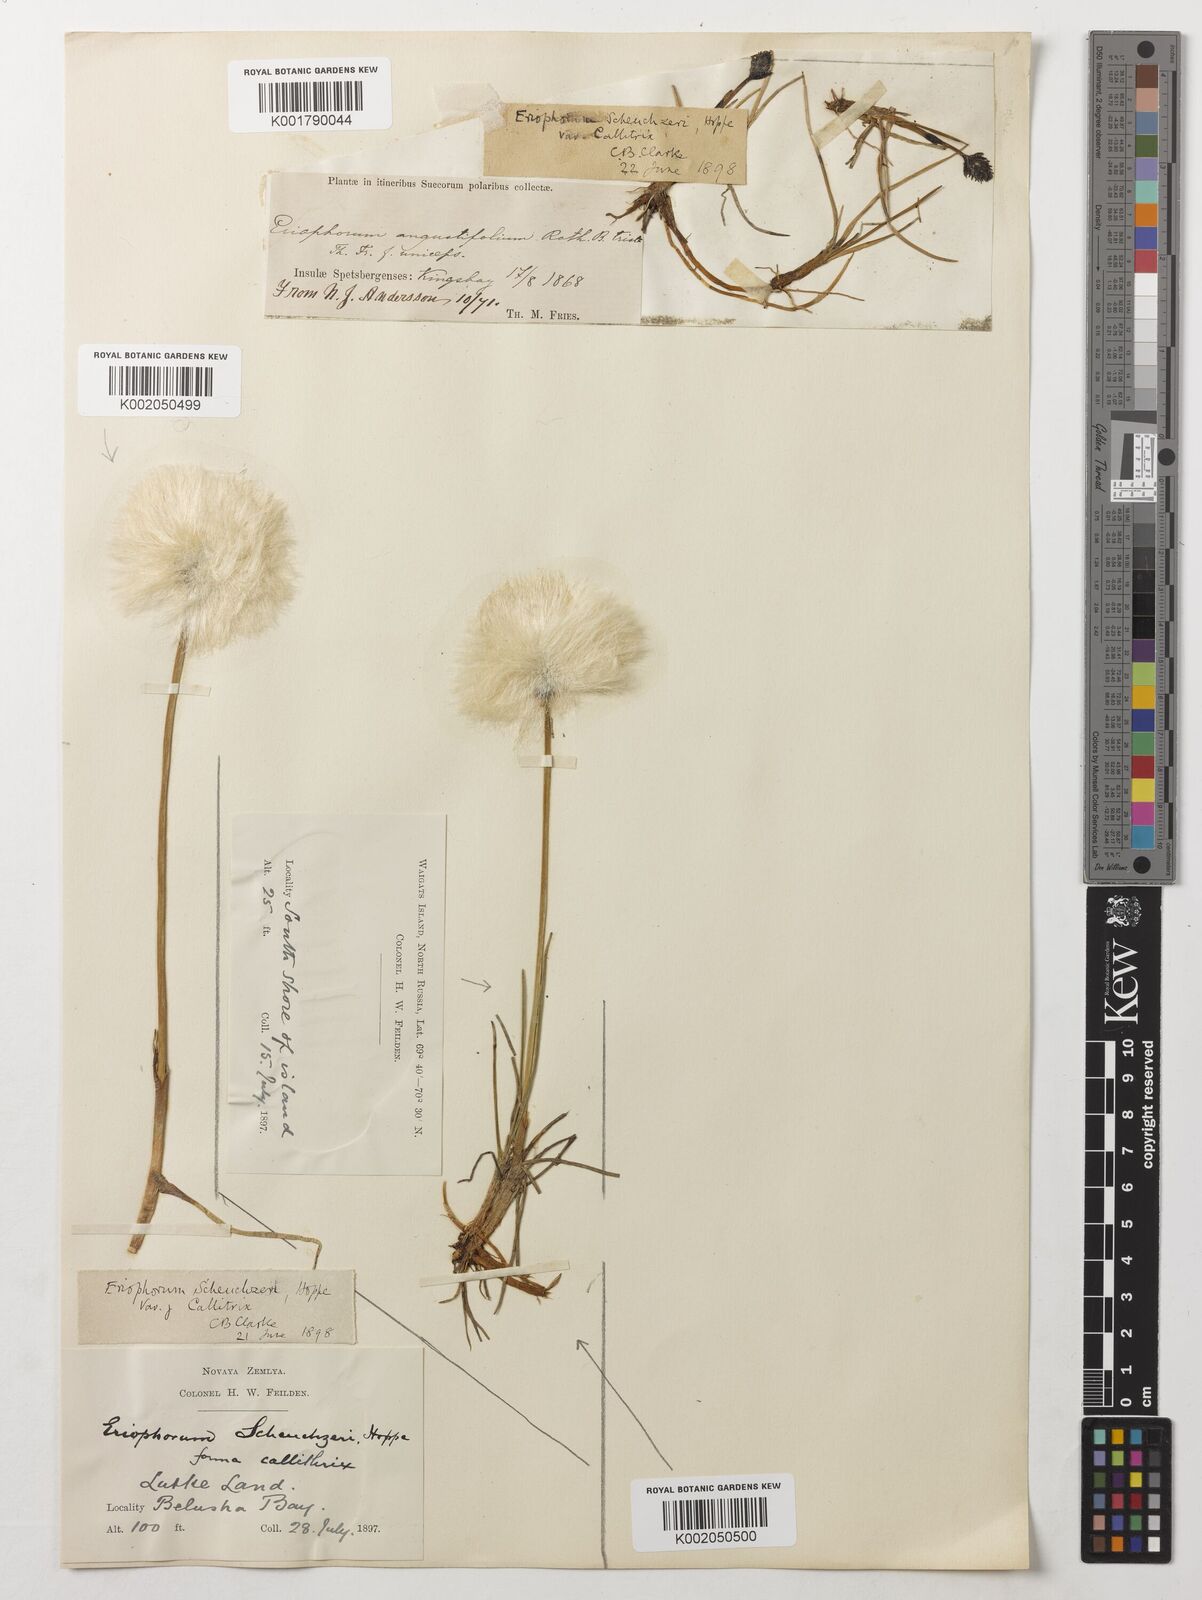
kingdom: Plantae
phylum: Tracheophyta
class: Liliopsida
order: Poales
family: Cyperaceae
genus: Eriophorum
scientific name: Eriophorum scheuchzeri
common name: Scheuchzer's cottongrass
